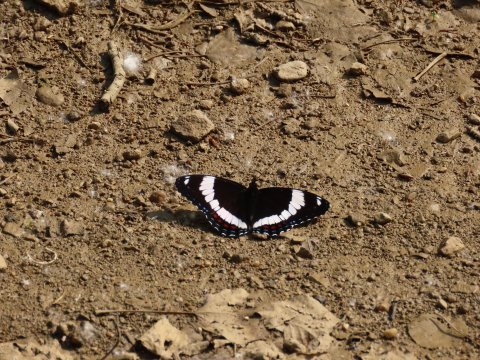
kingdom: Animalia
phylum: Arthropoda
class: Insecta
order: Lepidoptera
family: Nymphalidae
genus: Limenitis
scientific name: Limenitis arthemis
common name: Red-spotted Admiral
